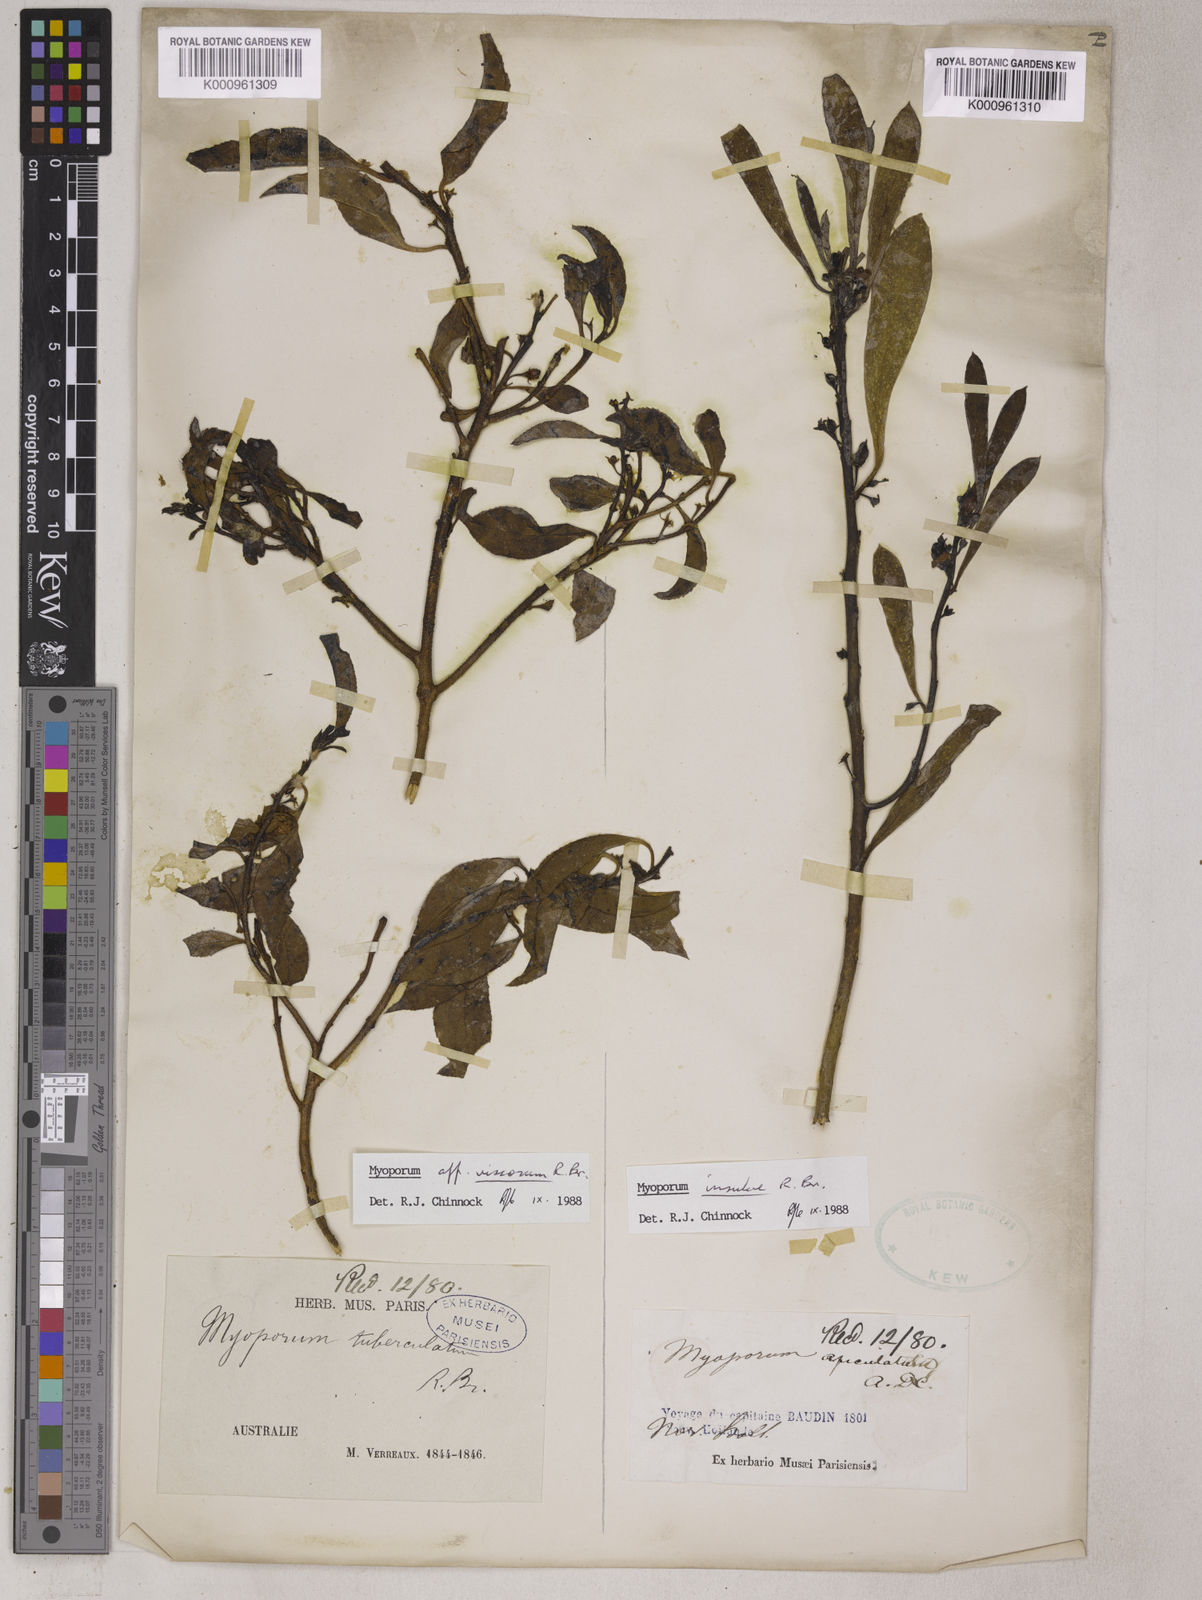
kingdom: Plantae
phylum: Tracheophyta
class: Magnoliopsida
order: Lamiales
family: Scrophulariaceae
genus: Myoporum
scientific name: Myoporum insulare
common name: Common boobialla
